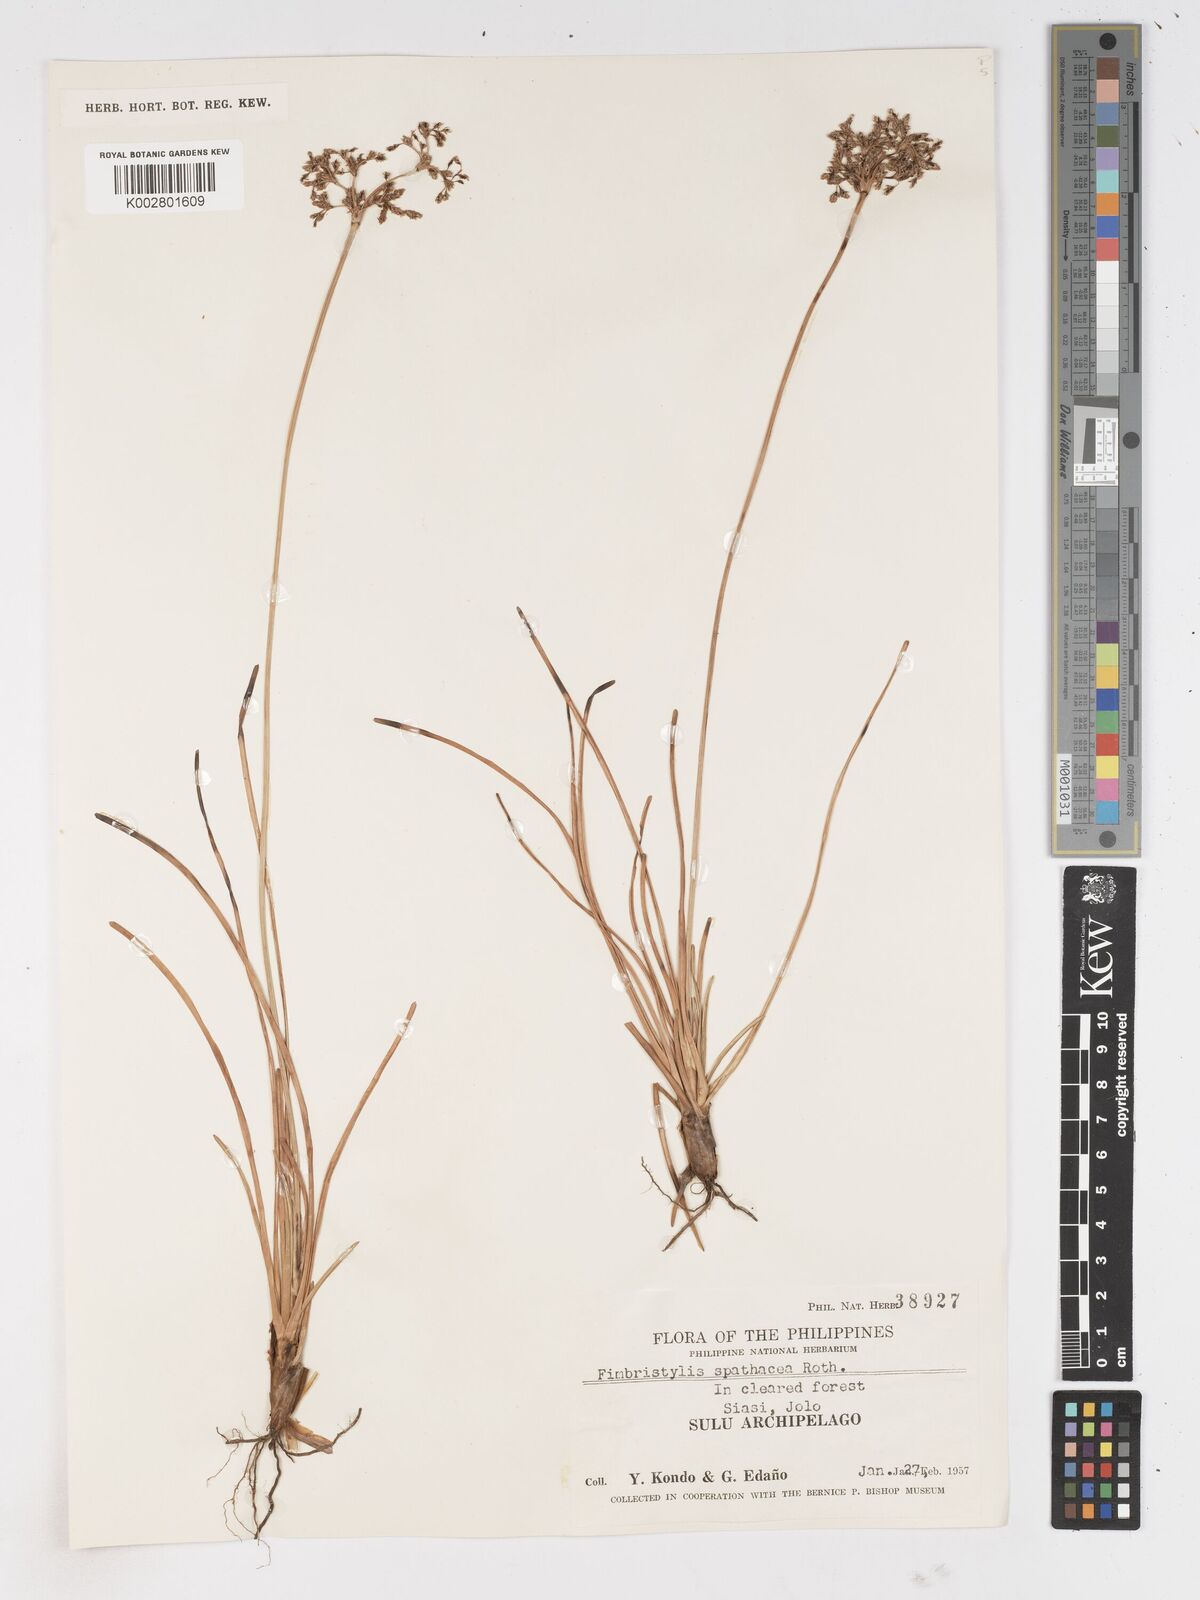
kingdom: Plantae
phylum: Tracheophyta
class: Liliopsida
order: Poales
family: Cyperaceae
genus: Fimbristylis
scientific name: Fimbristylis cymosa
